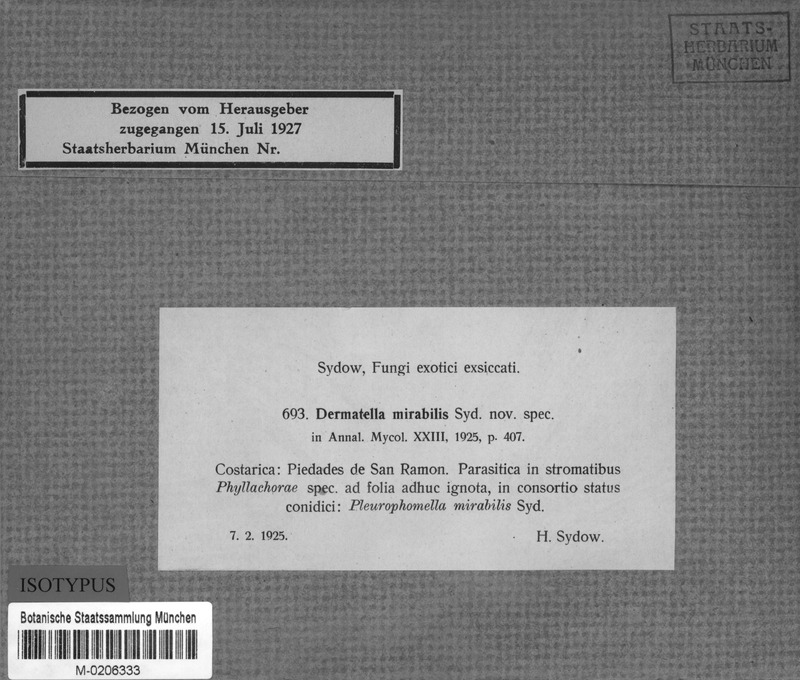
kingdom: Fungi
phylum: Ascomycota
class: Leotiomycetes
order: Helotiales
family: Dermateaceae
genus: Dermatella
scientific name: Dermatella mirabilis
